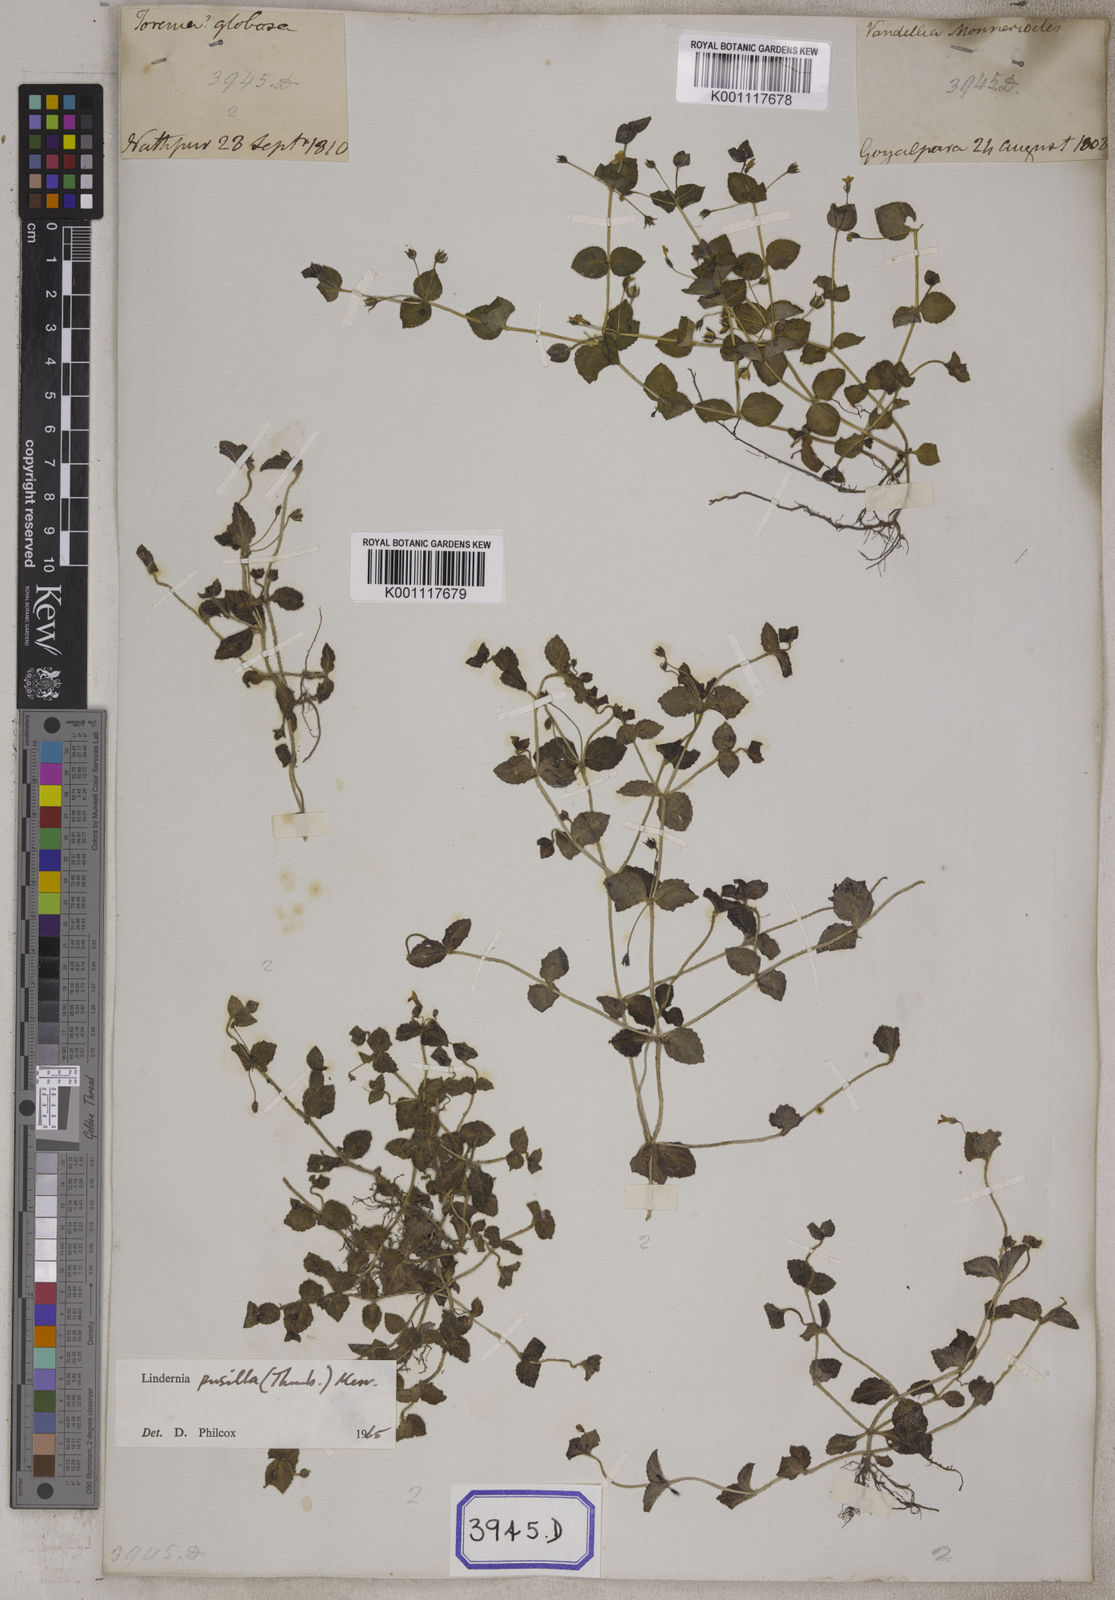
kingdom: Plantae
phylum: Tracheophyta
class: Magnoliopsida
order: Lamiales
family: Linderniaceae
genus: Yamazakia
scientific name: Yamazakia pusilla
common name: Tiny slitwort
